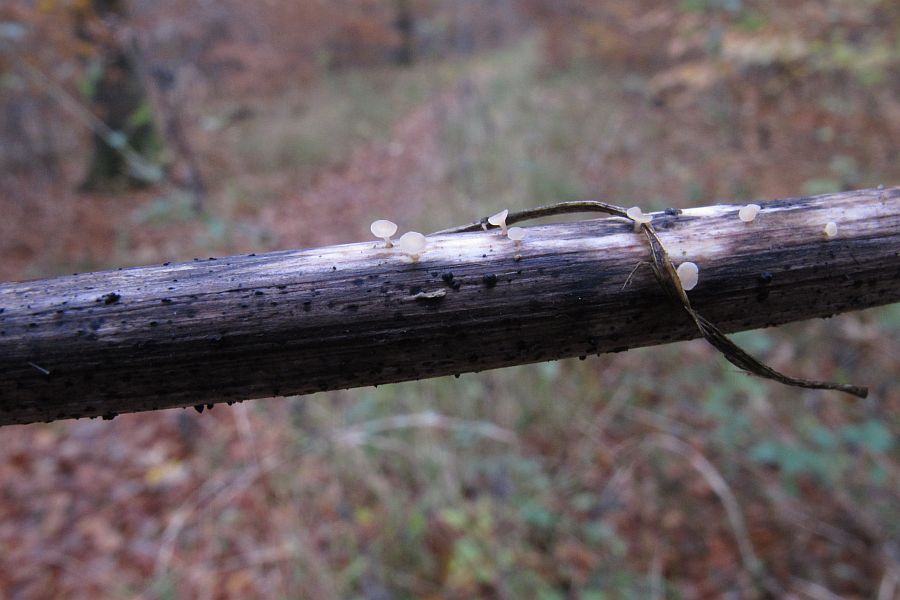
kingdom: Fungi
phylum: Ascomycota
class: Leotiomycetes
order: Helotiales
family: Helotiaceae
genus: Cyathicula
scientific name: Cyathicula cyathoidea
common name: pokal-stilkskive
